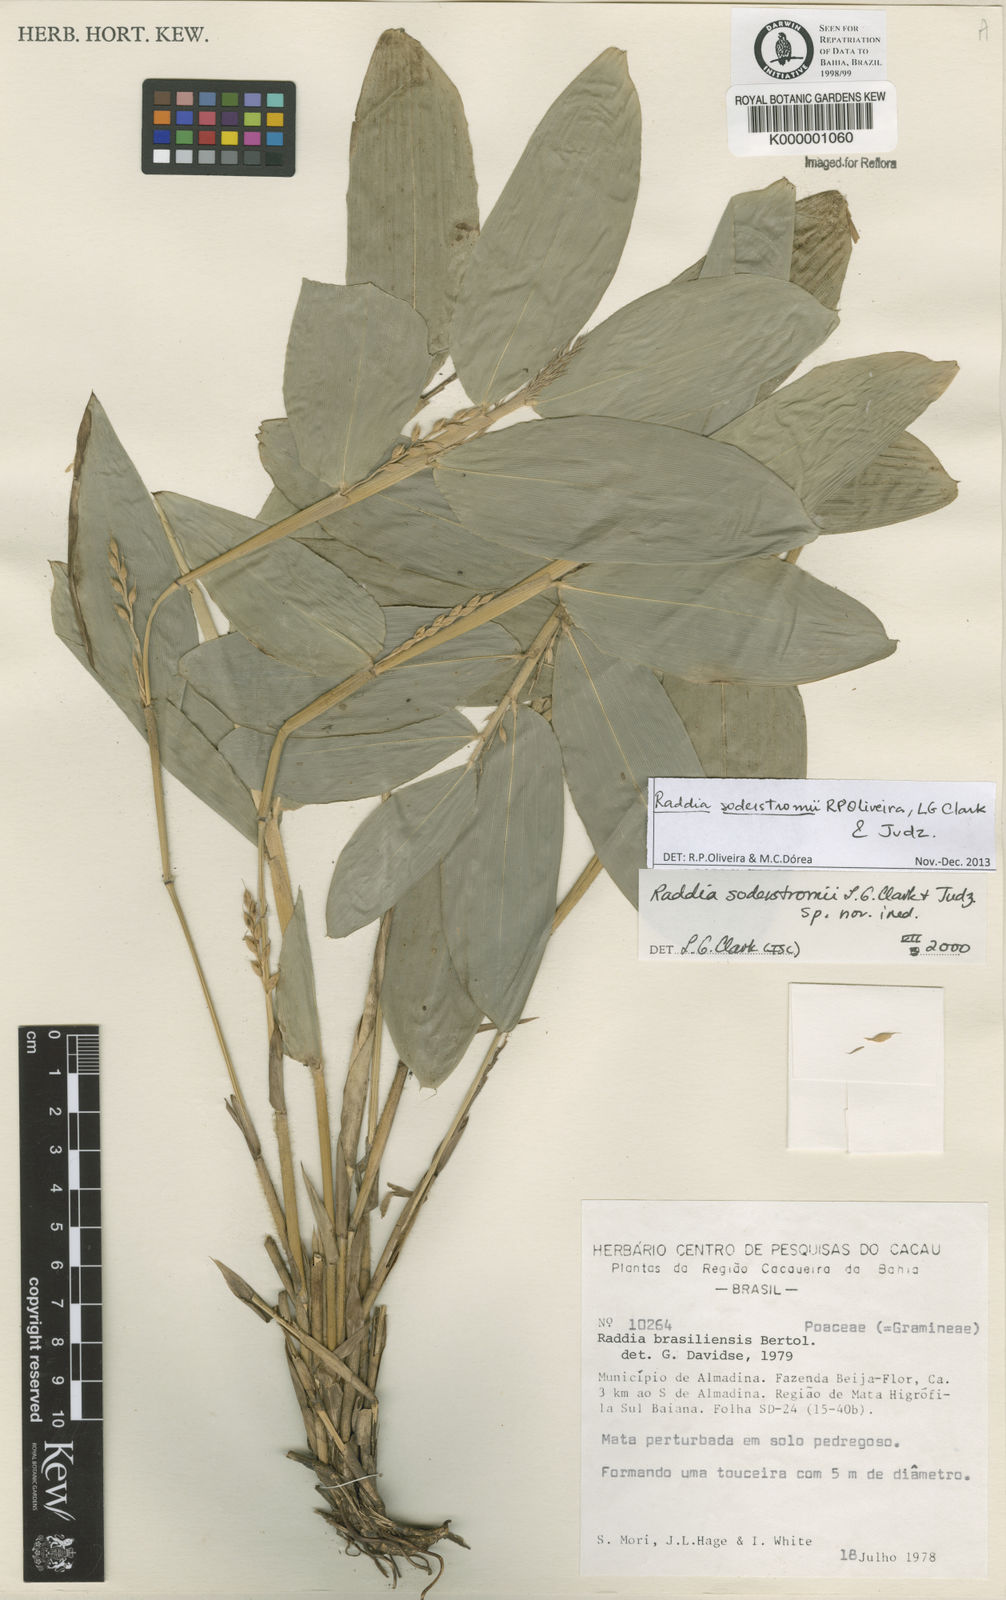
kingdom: Plantae
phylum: Tracheophyta
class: Liliopsida
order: Poales
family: Poaceae
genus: Raddia
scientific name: Raddia
